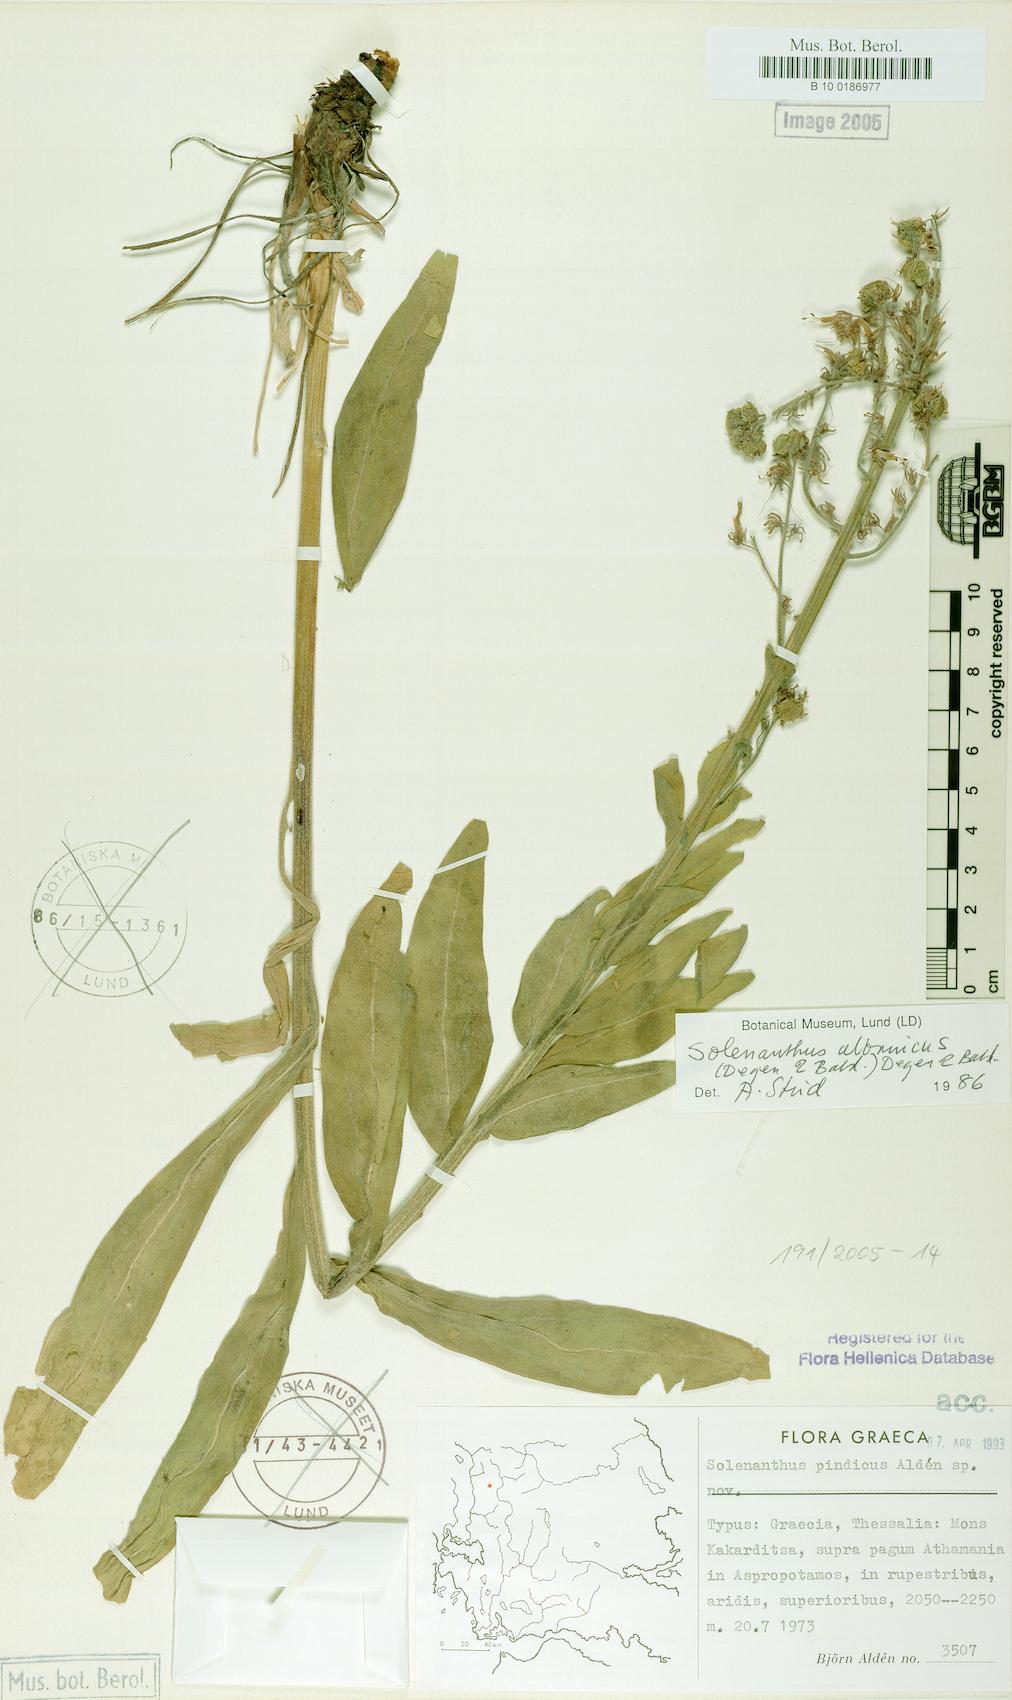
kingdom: Plantae
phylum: Tracheophyta
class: Magnoliopsida
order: Boraginales
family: Boraginaceae
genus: Solenanthus
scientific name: Solenanthus albanicus
